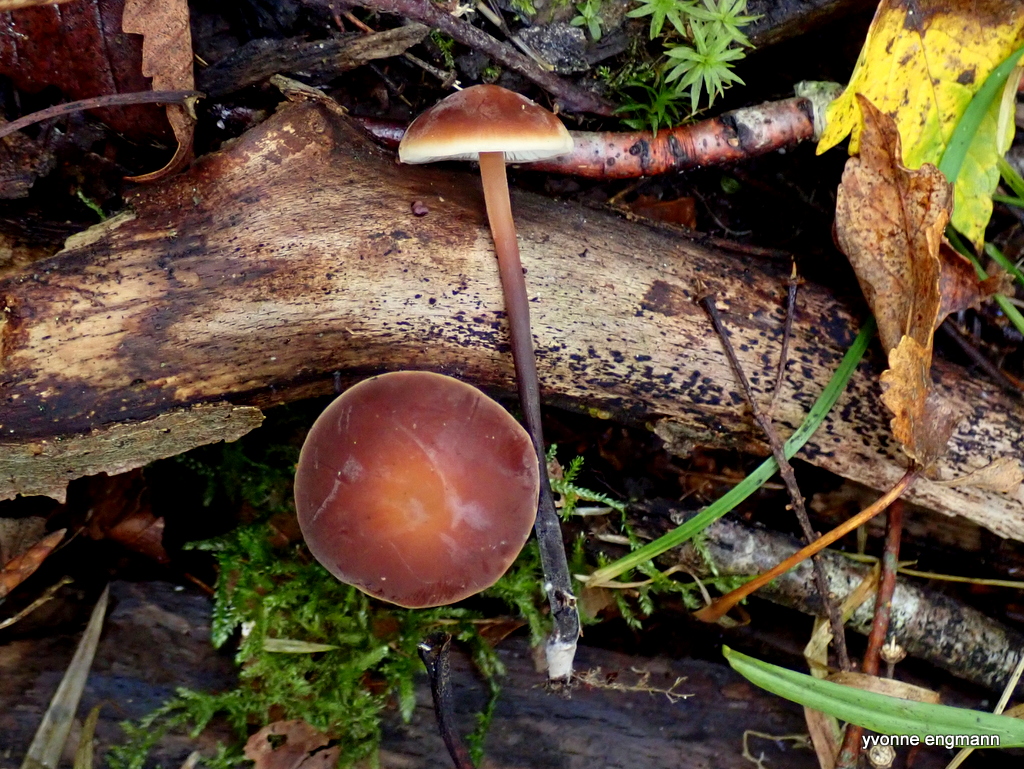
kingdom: Fungi
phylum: Basidiomycota
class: Agaricomycetes
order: Agaricales
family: Macrocystidiaceae
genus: Macrocystidia
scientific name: Macrocystidia cucumis
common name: agurkehat
